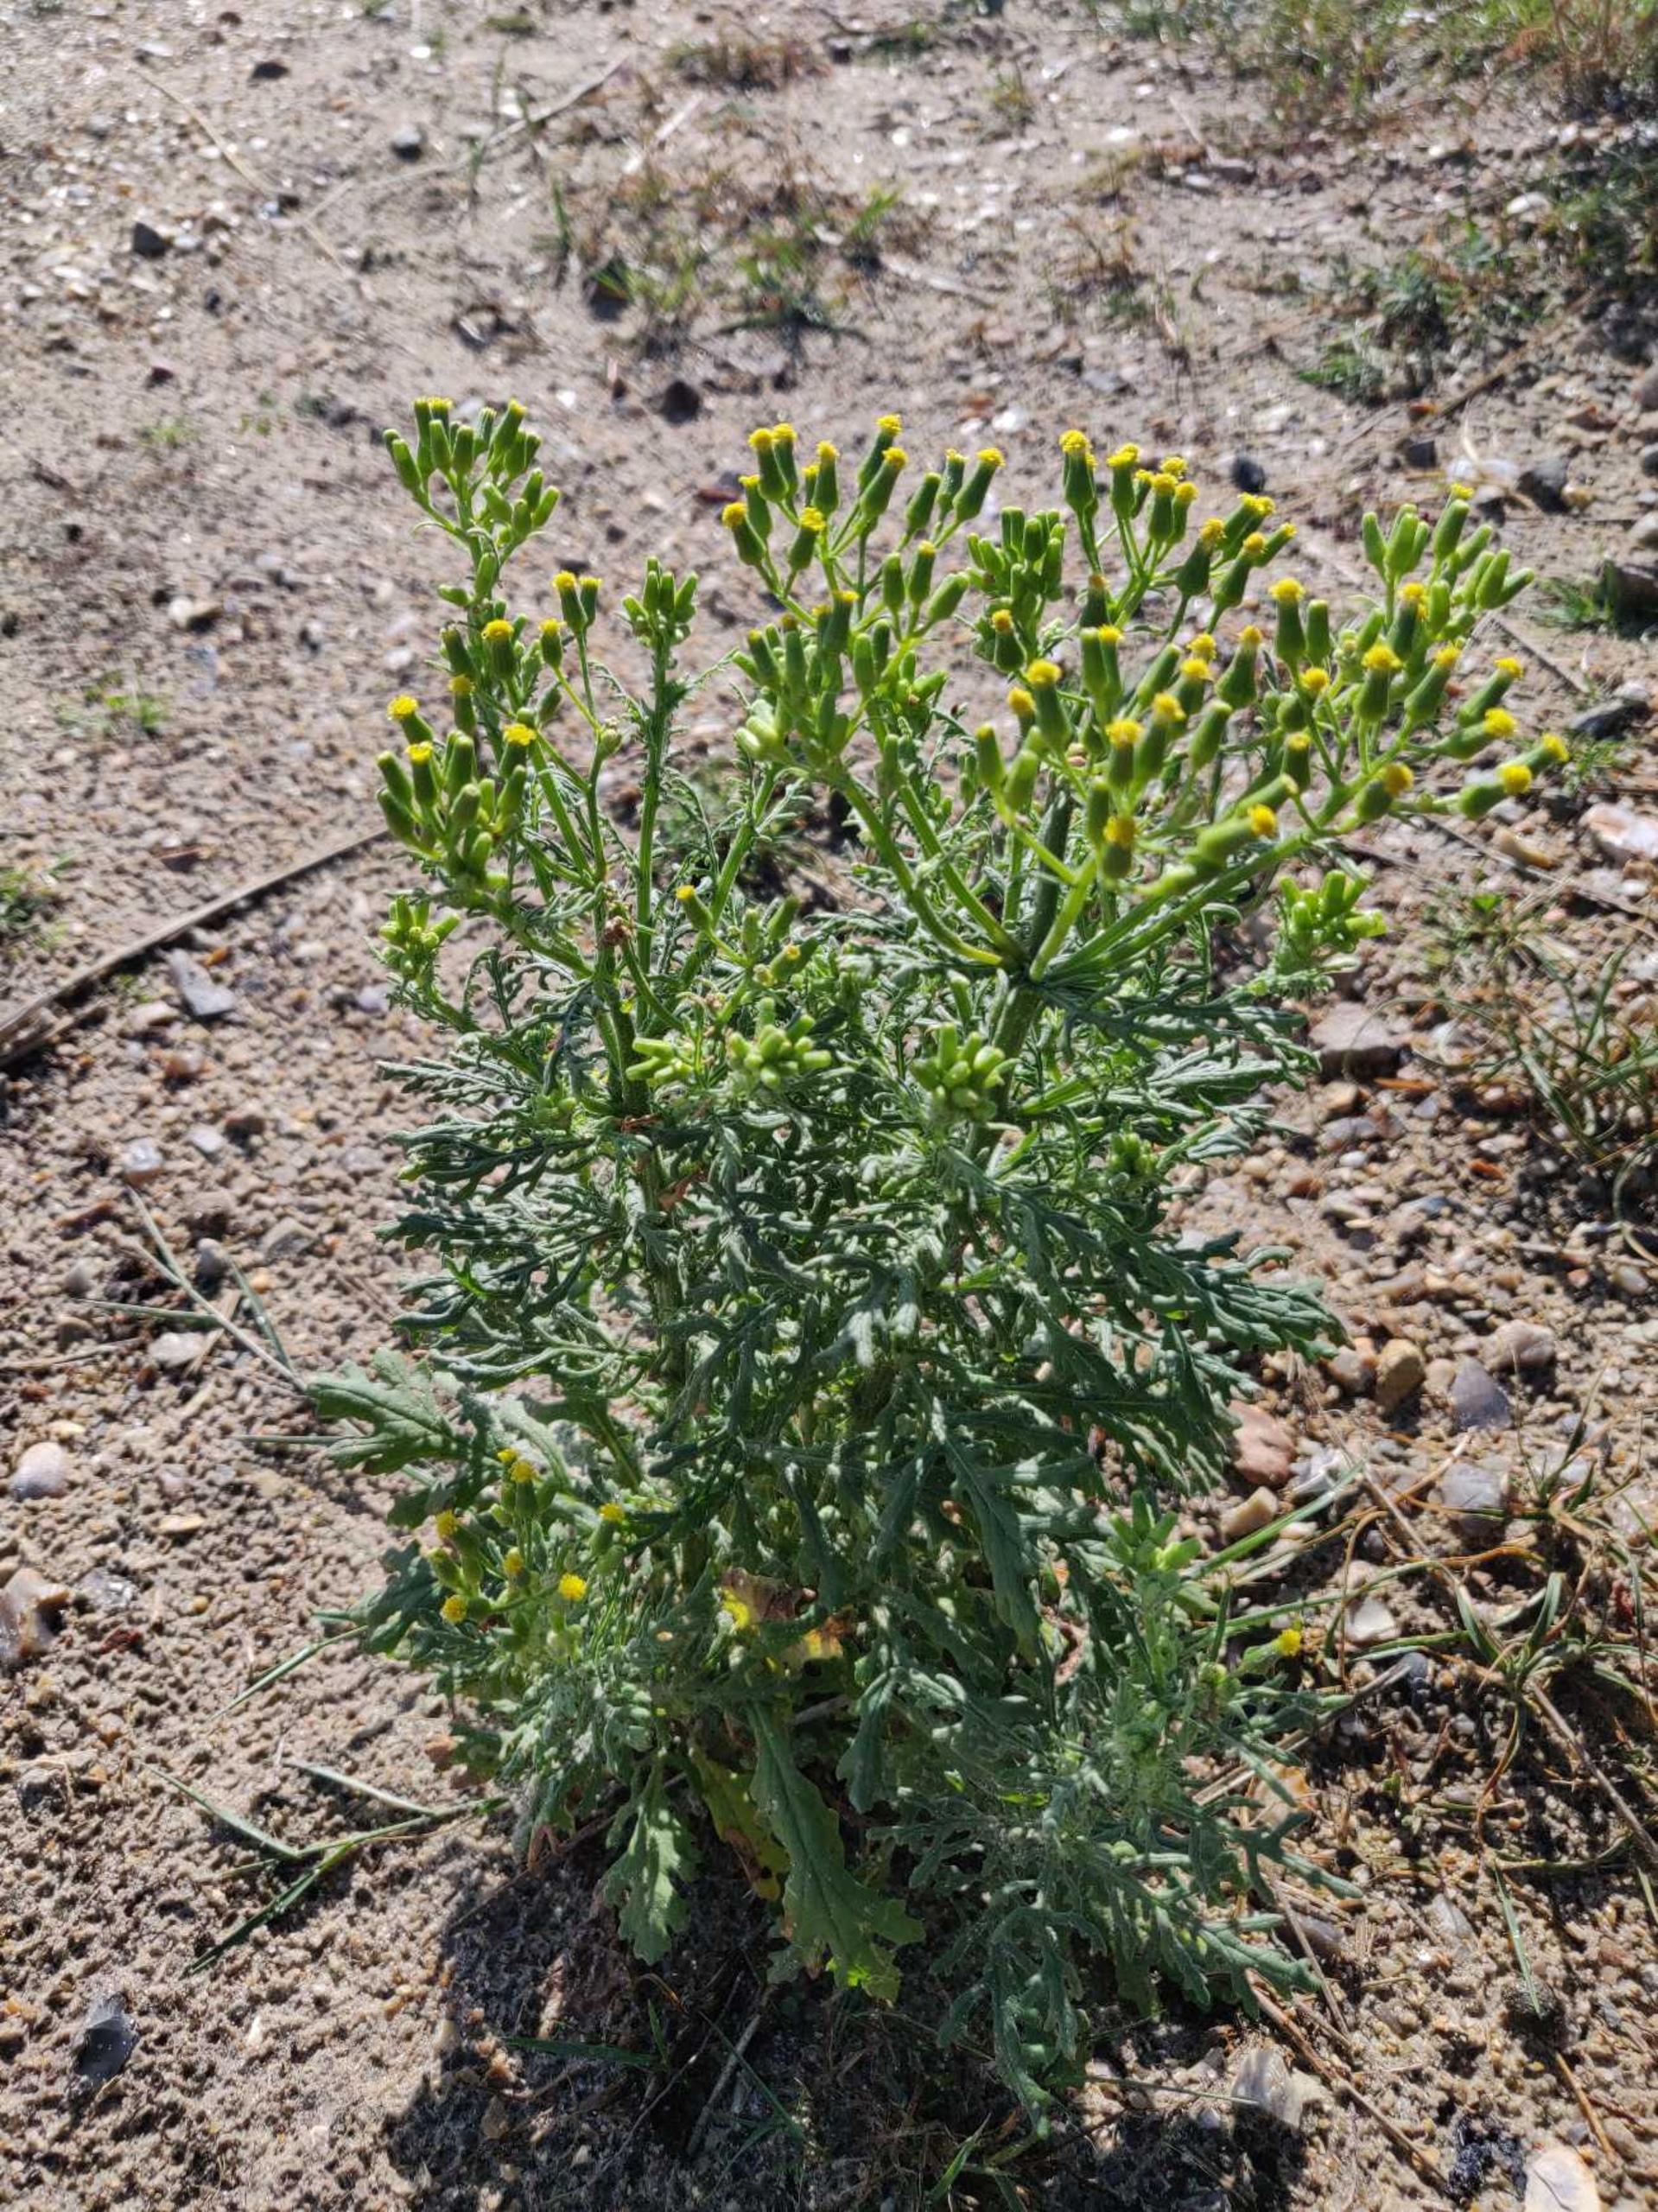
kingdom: Plantae
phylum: Tracheophyta
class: Magnoliopsida
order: Asterales
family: Asteraceae
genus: Senecio
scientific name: Senecio sylvaticus
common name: Skov-brandbæger
